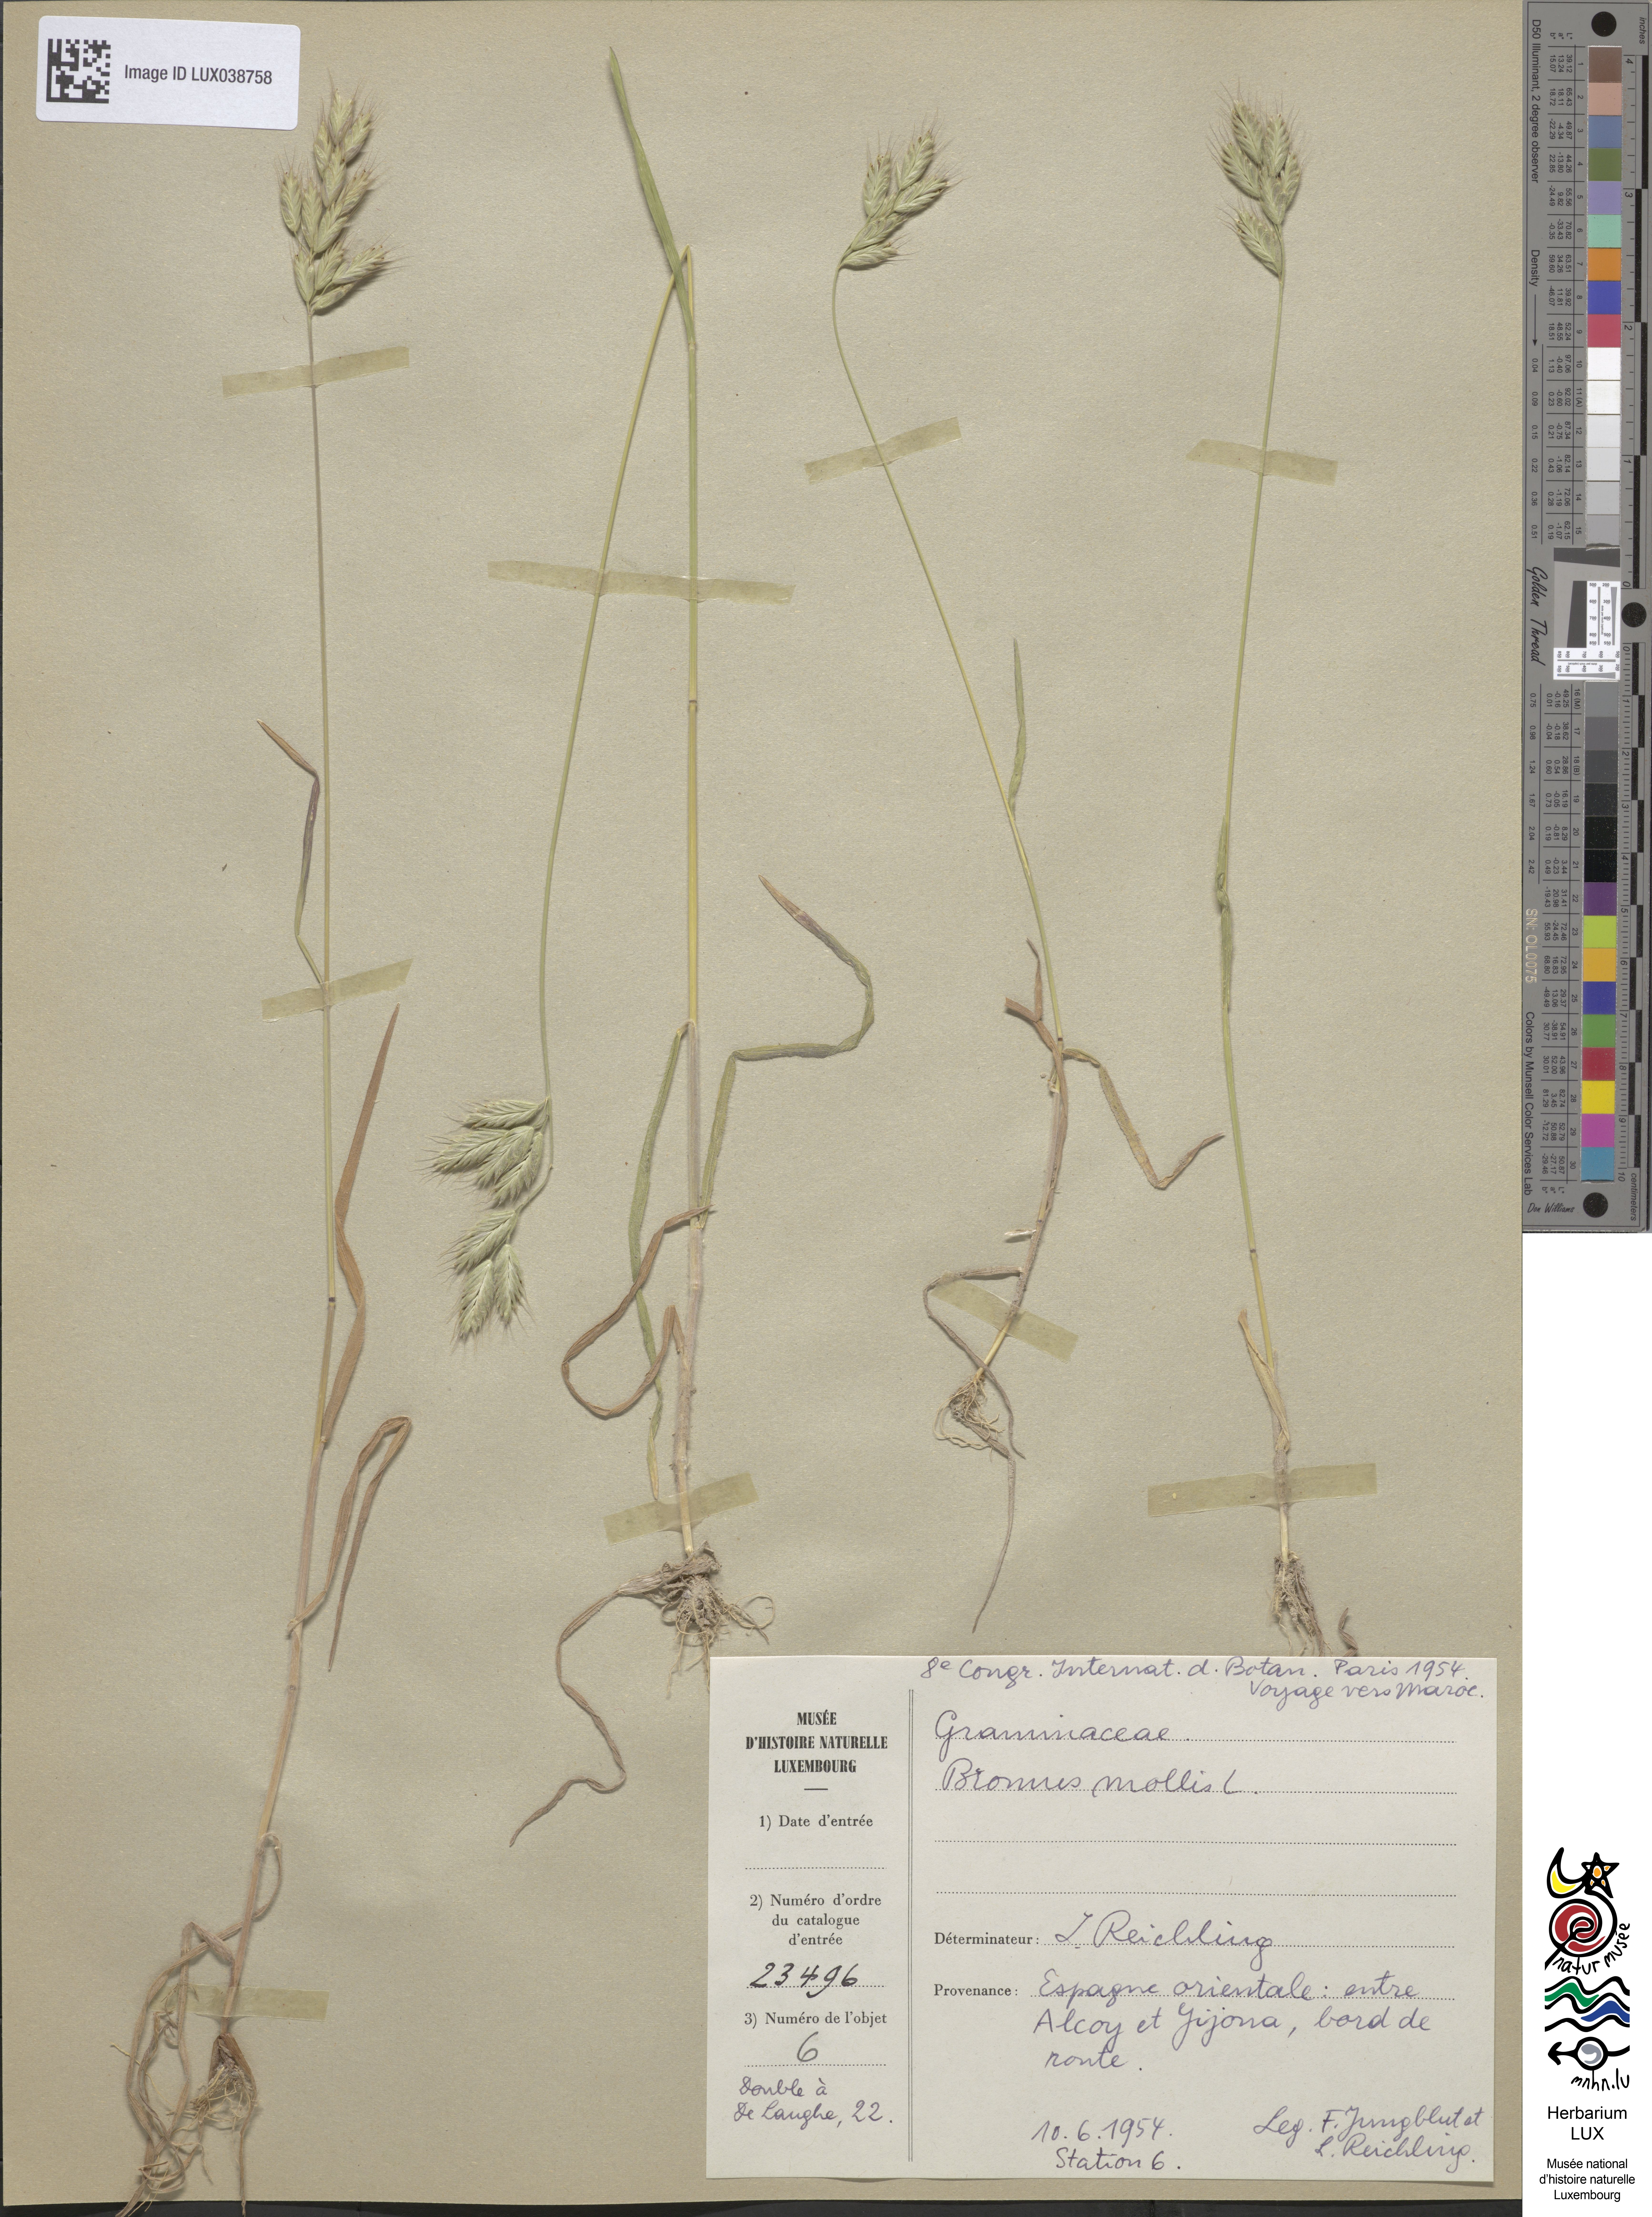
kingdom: Plantae
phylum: Tracheophyta
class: Liliopsida
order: Poales
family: Poaceae
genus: Bromus
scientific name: Bromus hordeaceus
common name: Soft brome
